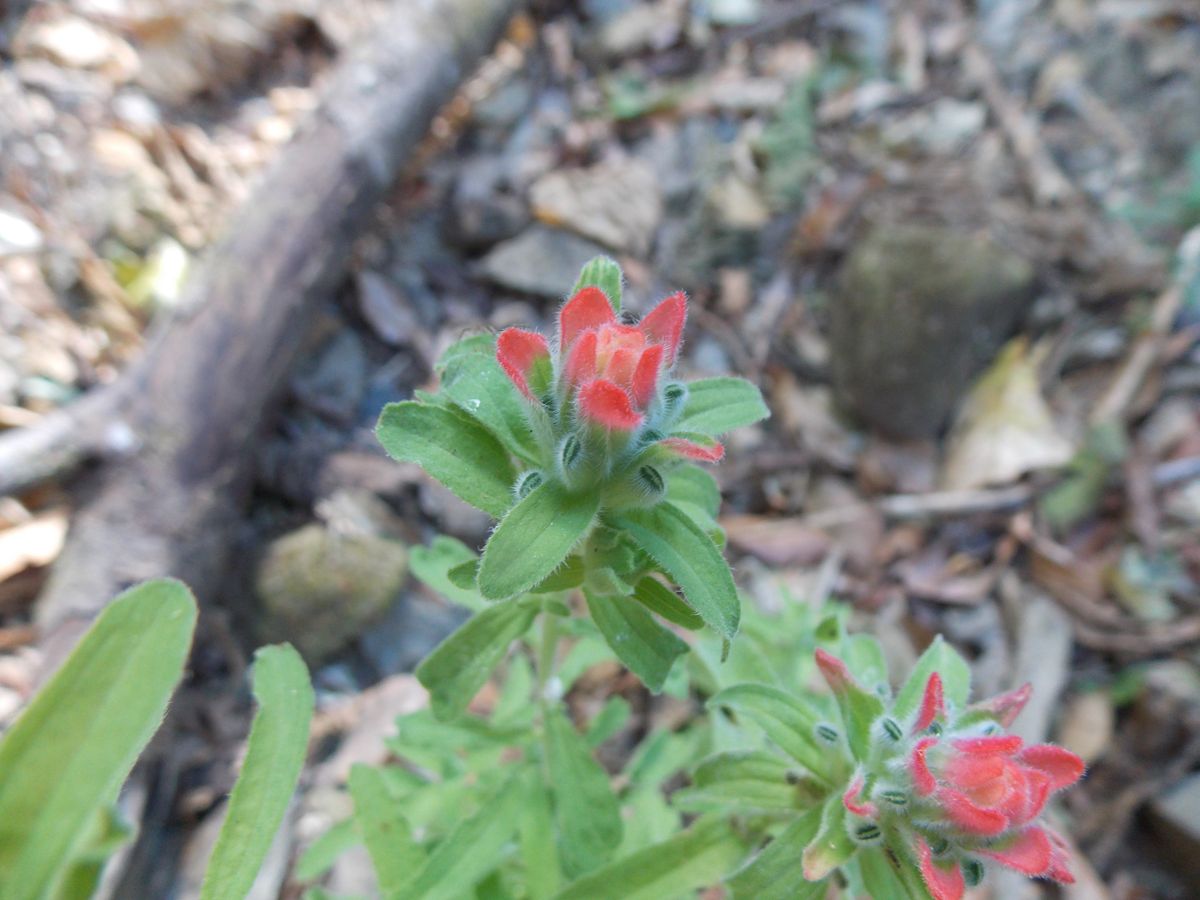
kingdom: Plantae
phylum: Tracheophyta
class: Magnoliopsida
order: Lamiales
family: Orobanchaceae
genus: Castilleja
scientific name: Castilleja arvensis
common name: Indian paintbrush
